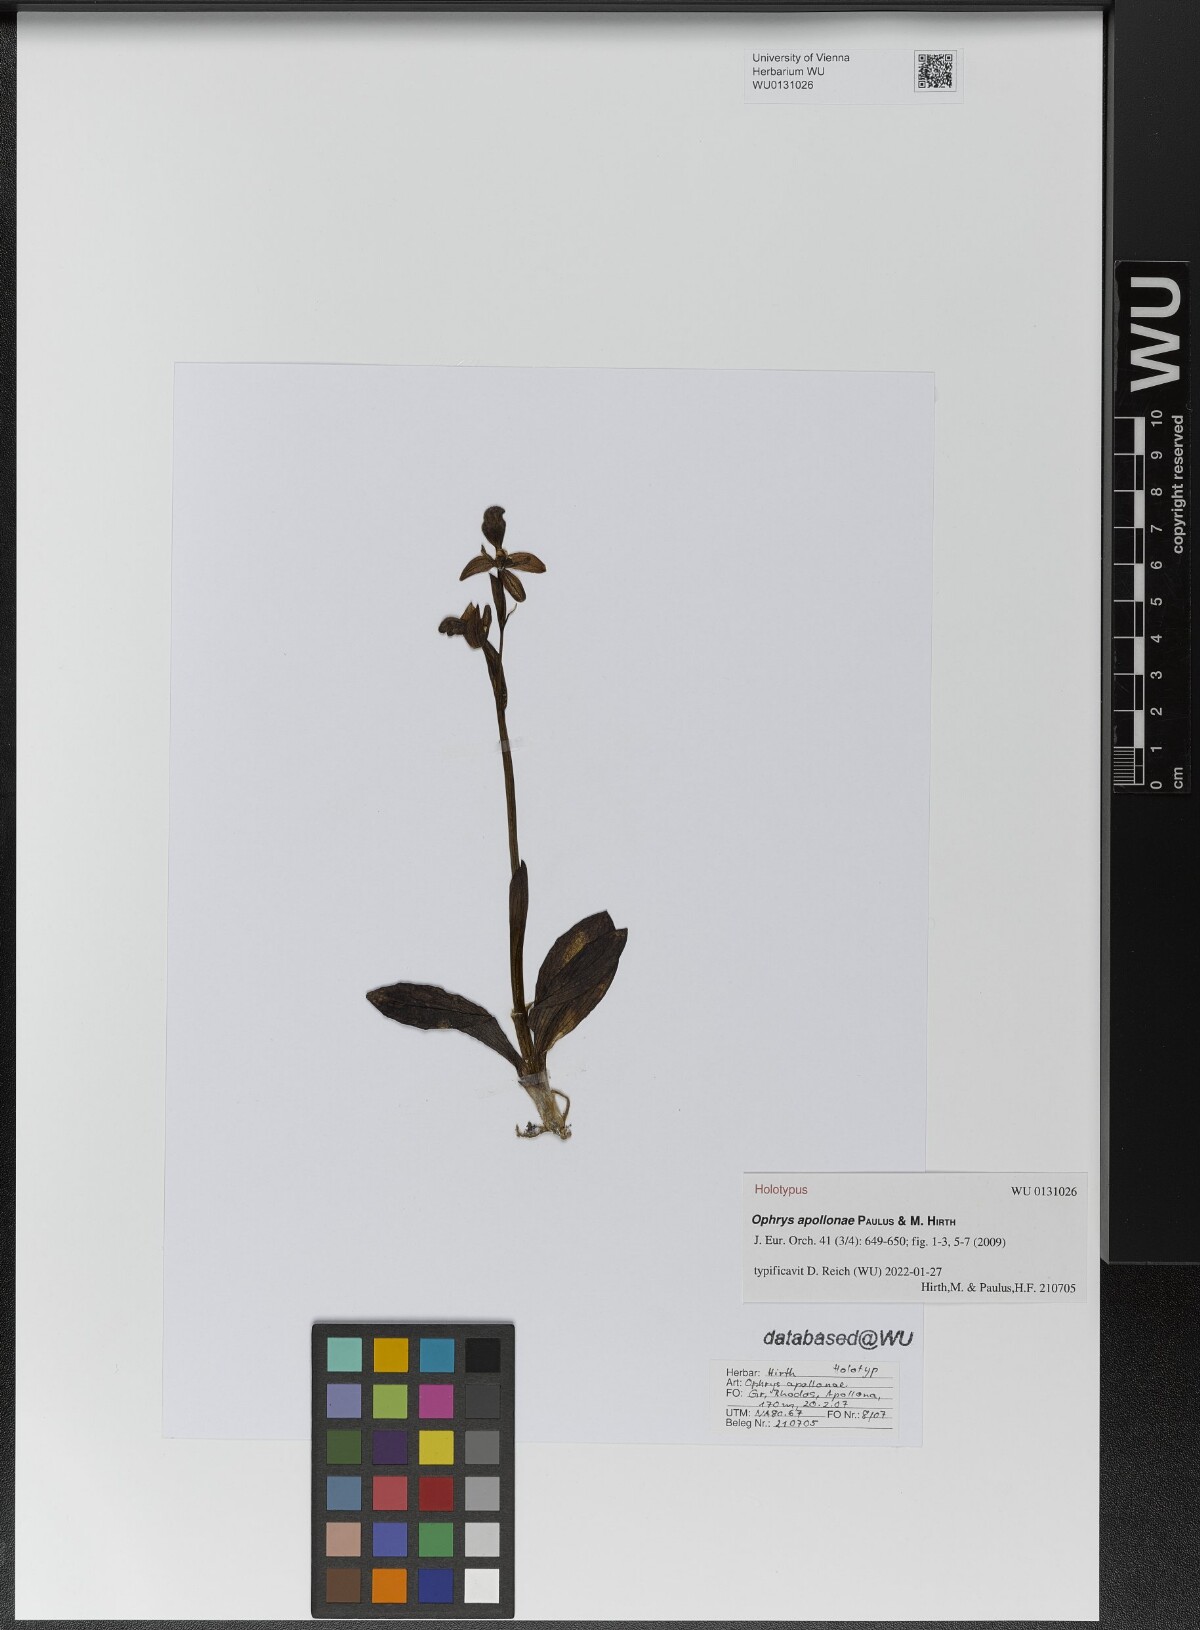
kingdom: Plantae
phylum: Tracheophyta
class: Liliopsida
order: Asparagales
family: Orchidaceae
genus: Ophrys
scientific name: Ophrys omegaifera
